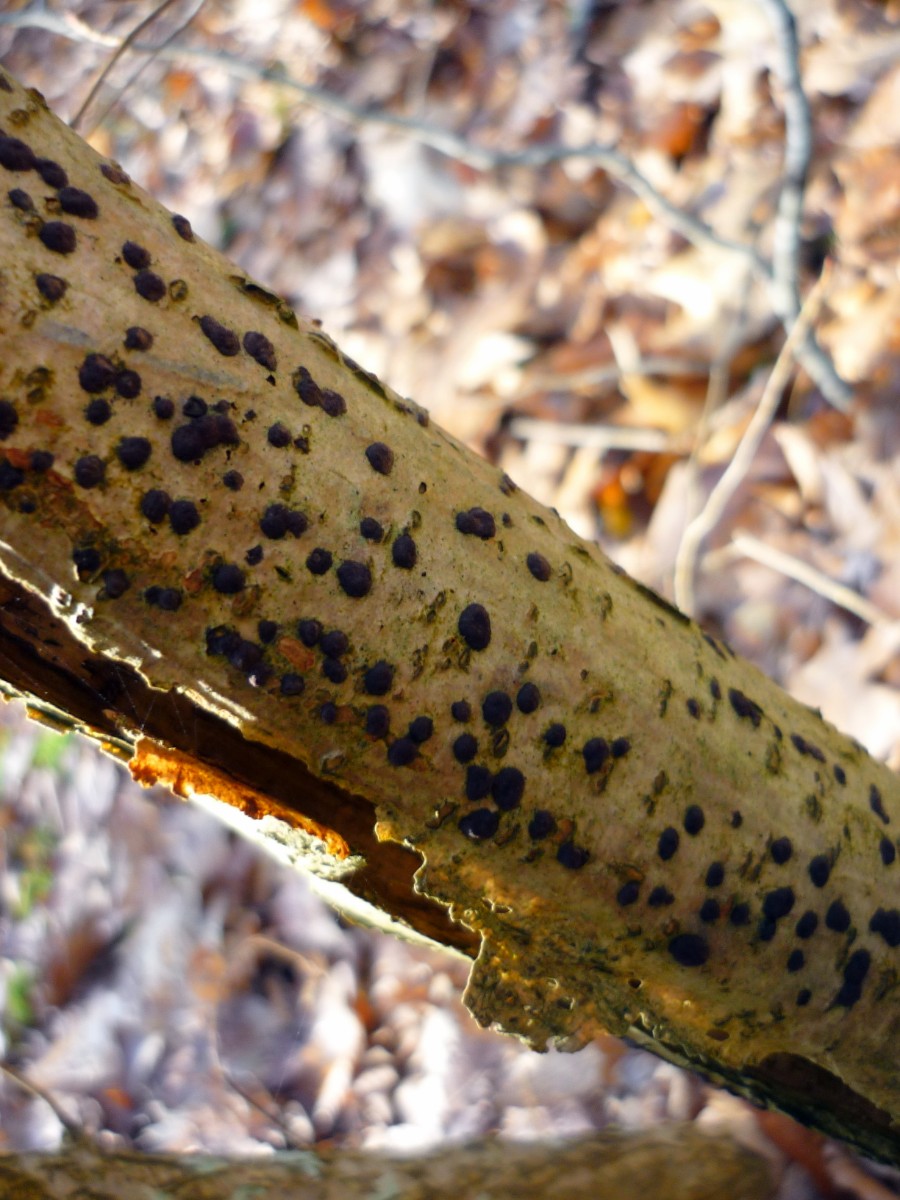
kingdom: Fungi
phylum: Ascomycota
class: Sordariomycetes
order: Xylariales
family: Hypoxylaceae
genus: Hypoxylon
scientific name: Hypoxylon fuscum
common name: kegleformet kulbær
